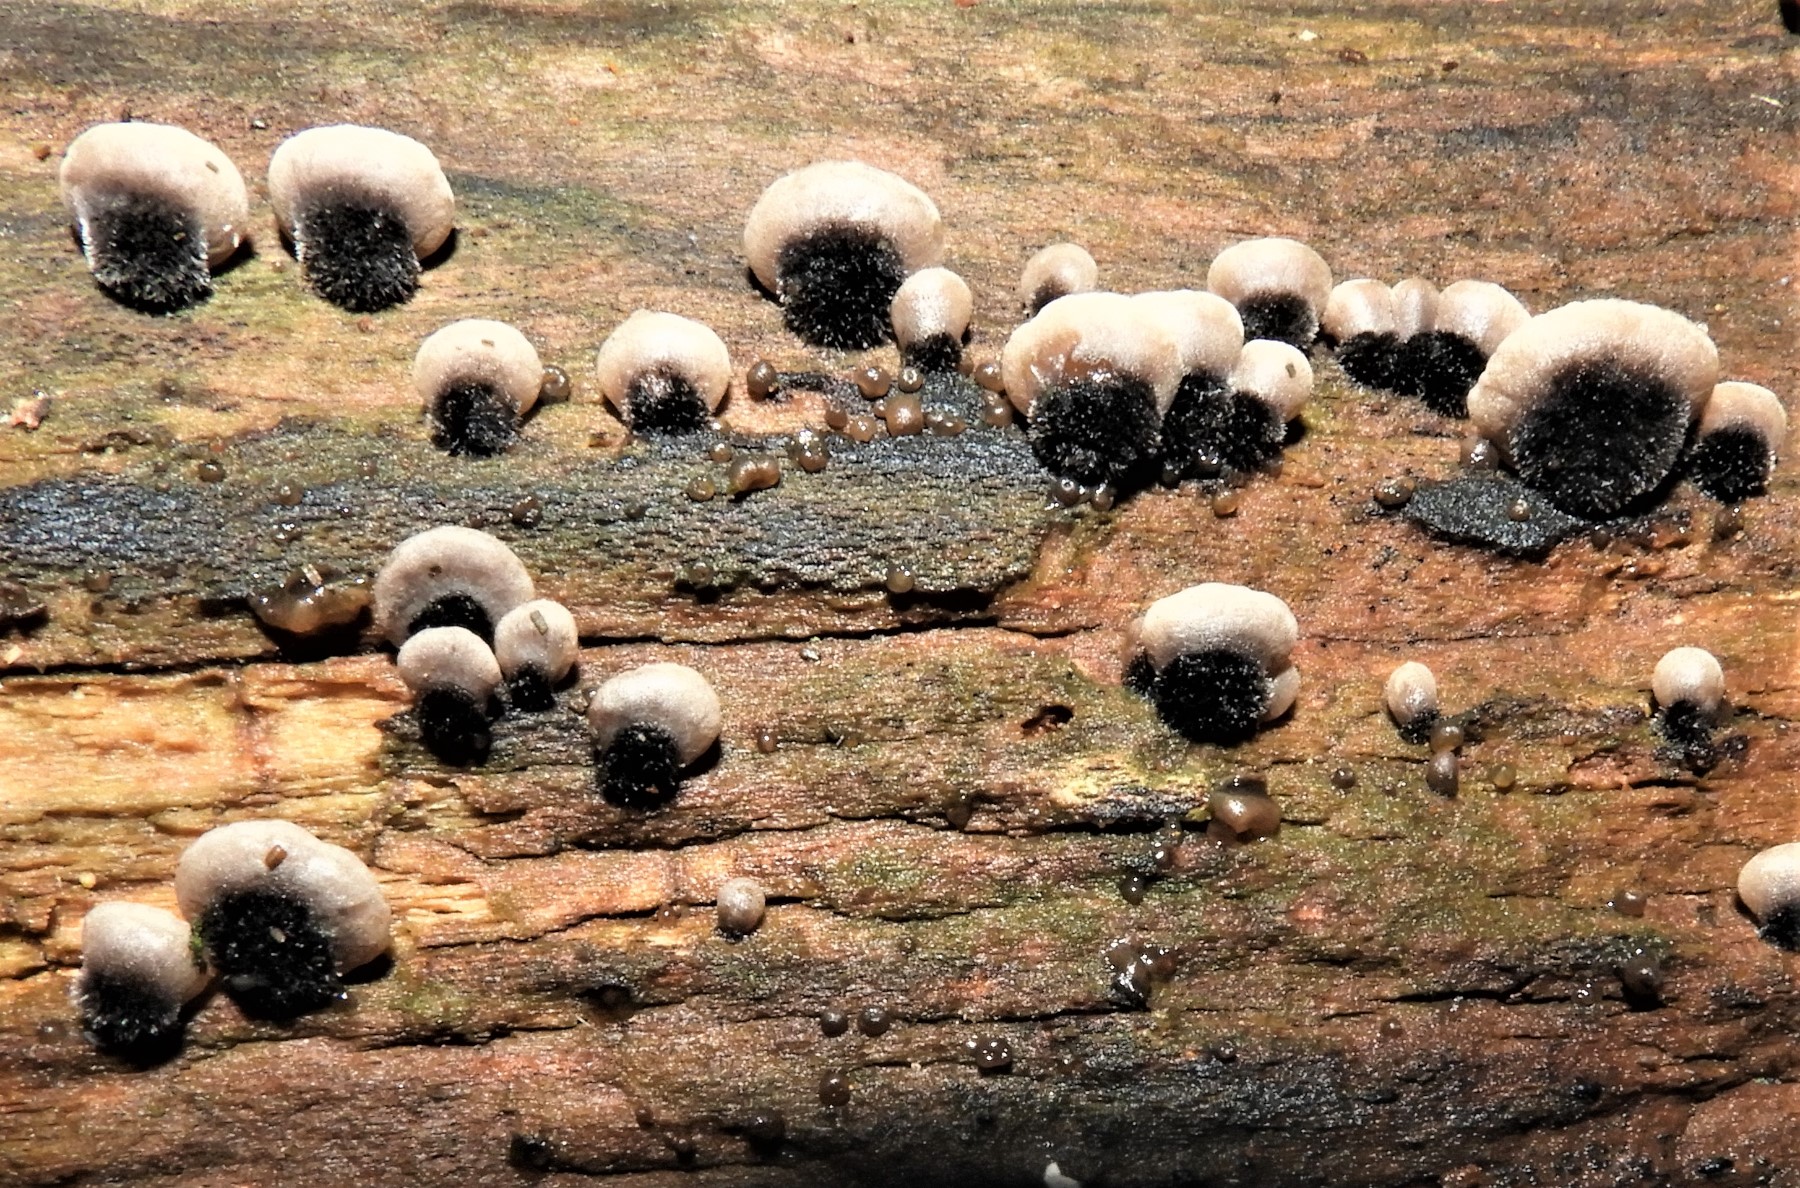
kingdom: Fungi
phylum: Basidiomycota
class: Agaricomycetes
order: Agaricales
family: Pleurotaceae
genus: Resupinatus
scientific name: Resupinatus trichotis
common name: mørkfiltet barkhat
